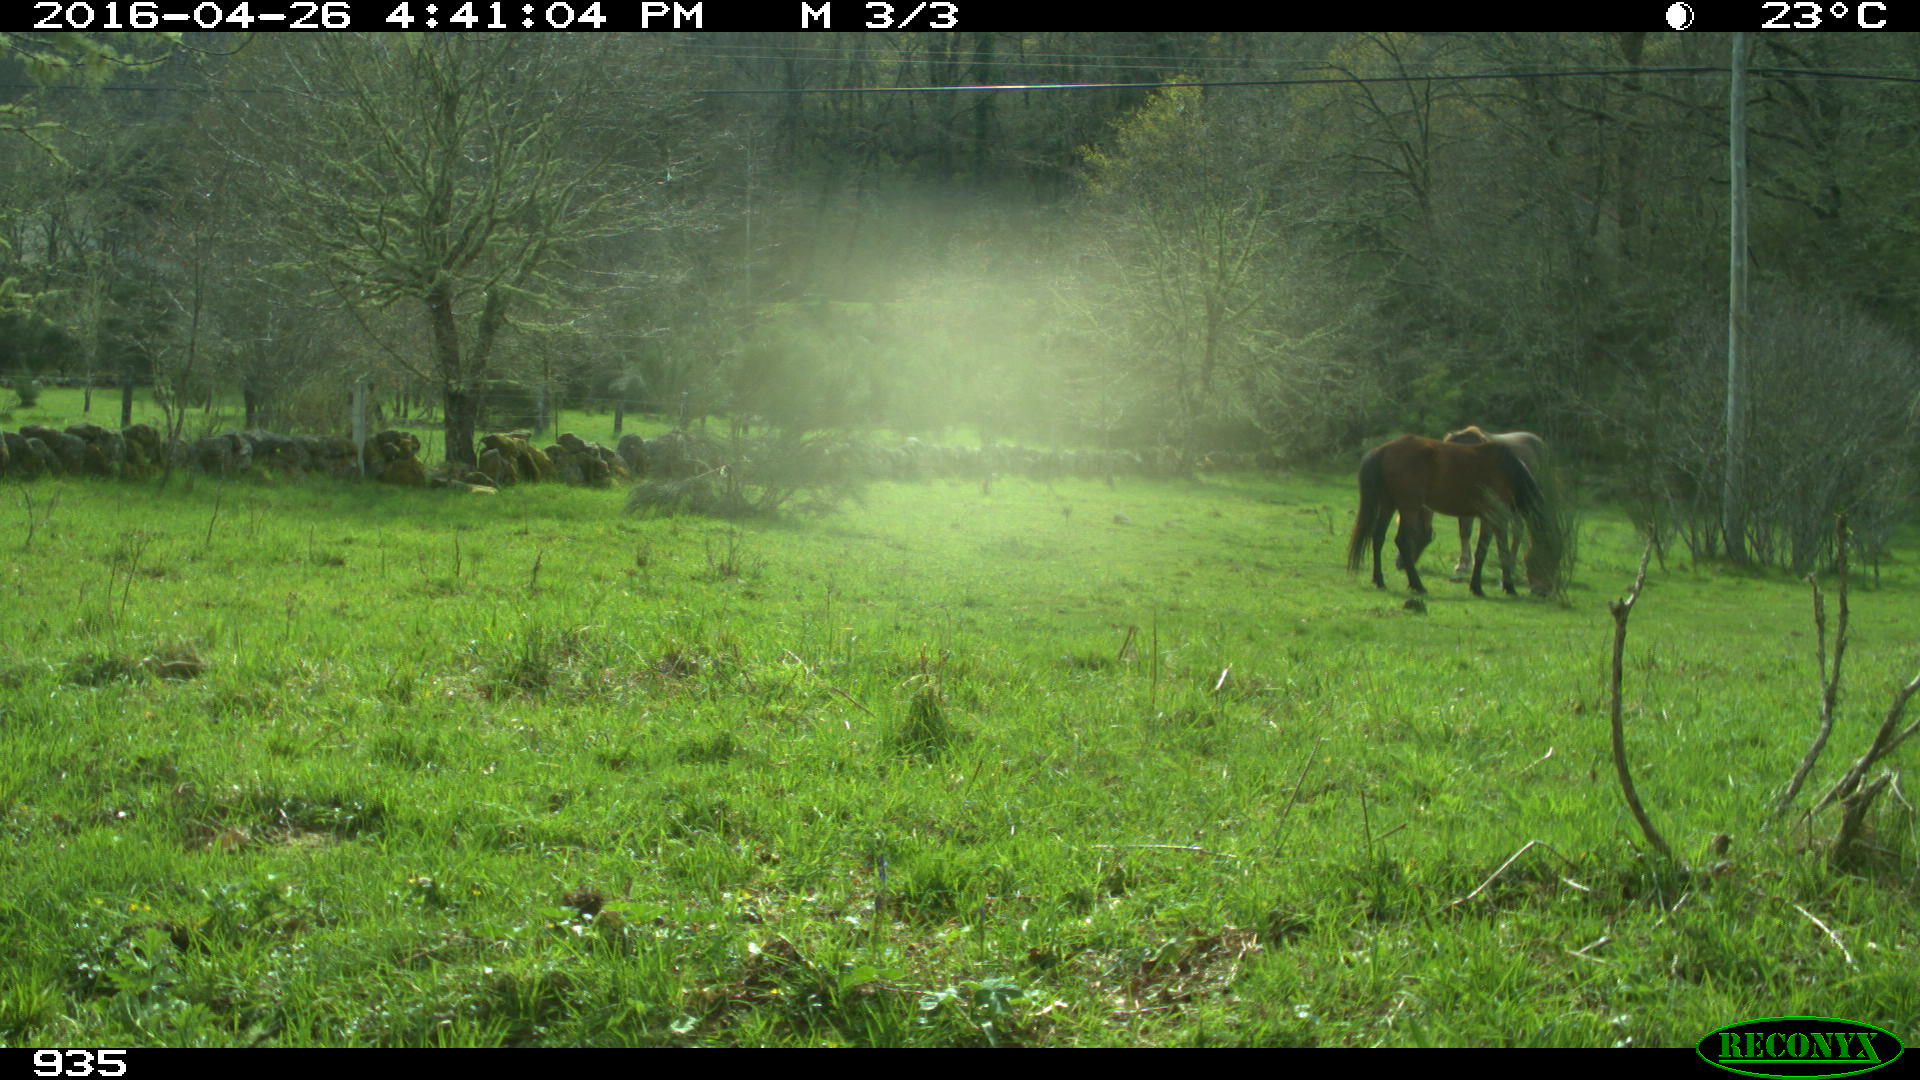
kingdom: Animalia
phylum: Chordata
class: Mammalia
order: Perissodactyla
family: Equidae
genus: Equus
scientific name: Equus caballus
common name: Horse
